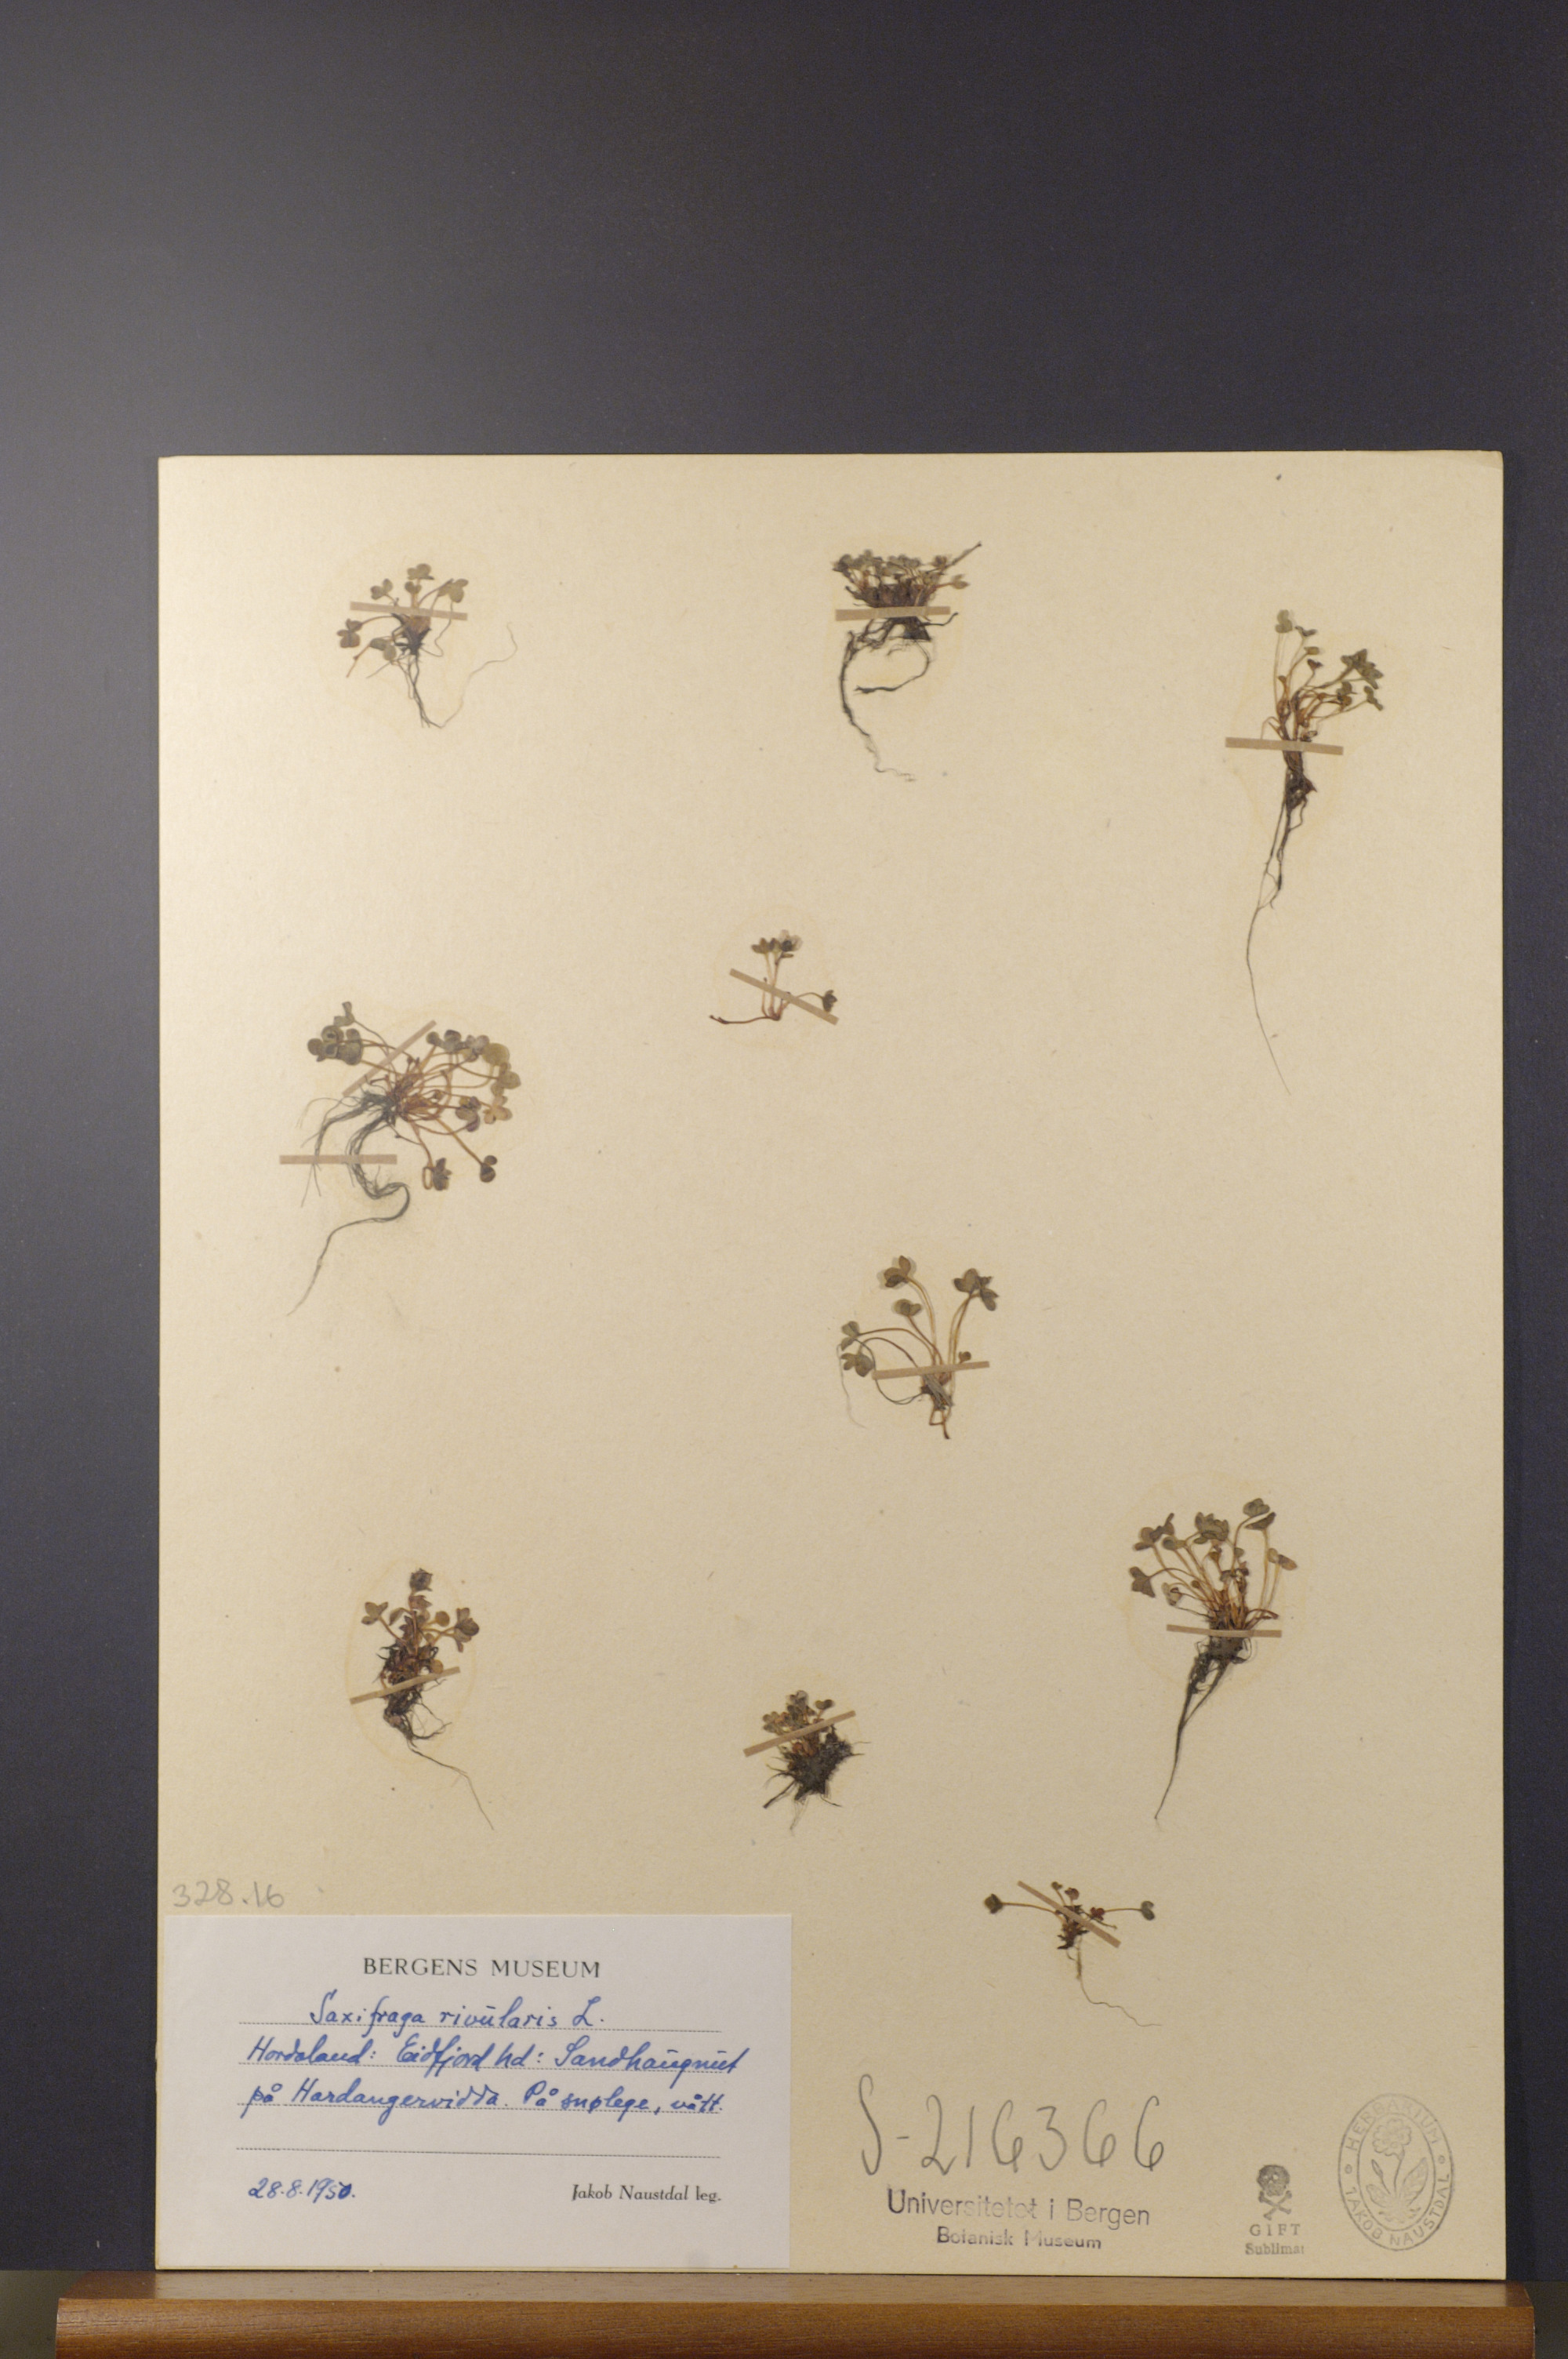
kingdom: Plantae
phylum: Tracheophyta
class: Magnoliopsida
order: Saxifragales
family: Saxifragaceae
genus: Saxifraga
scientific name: Saxifraga rivularis
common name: Highland saxifrage
